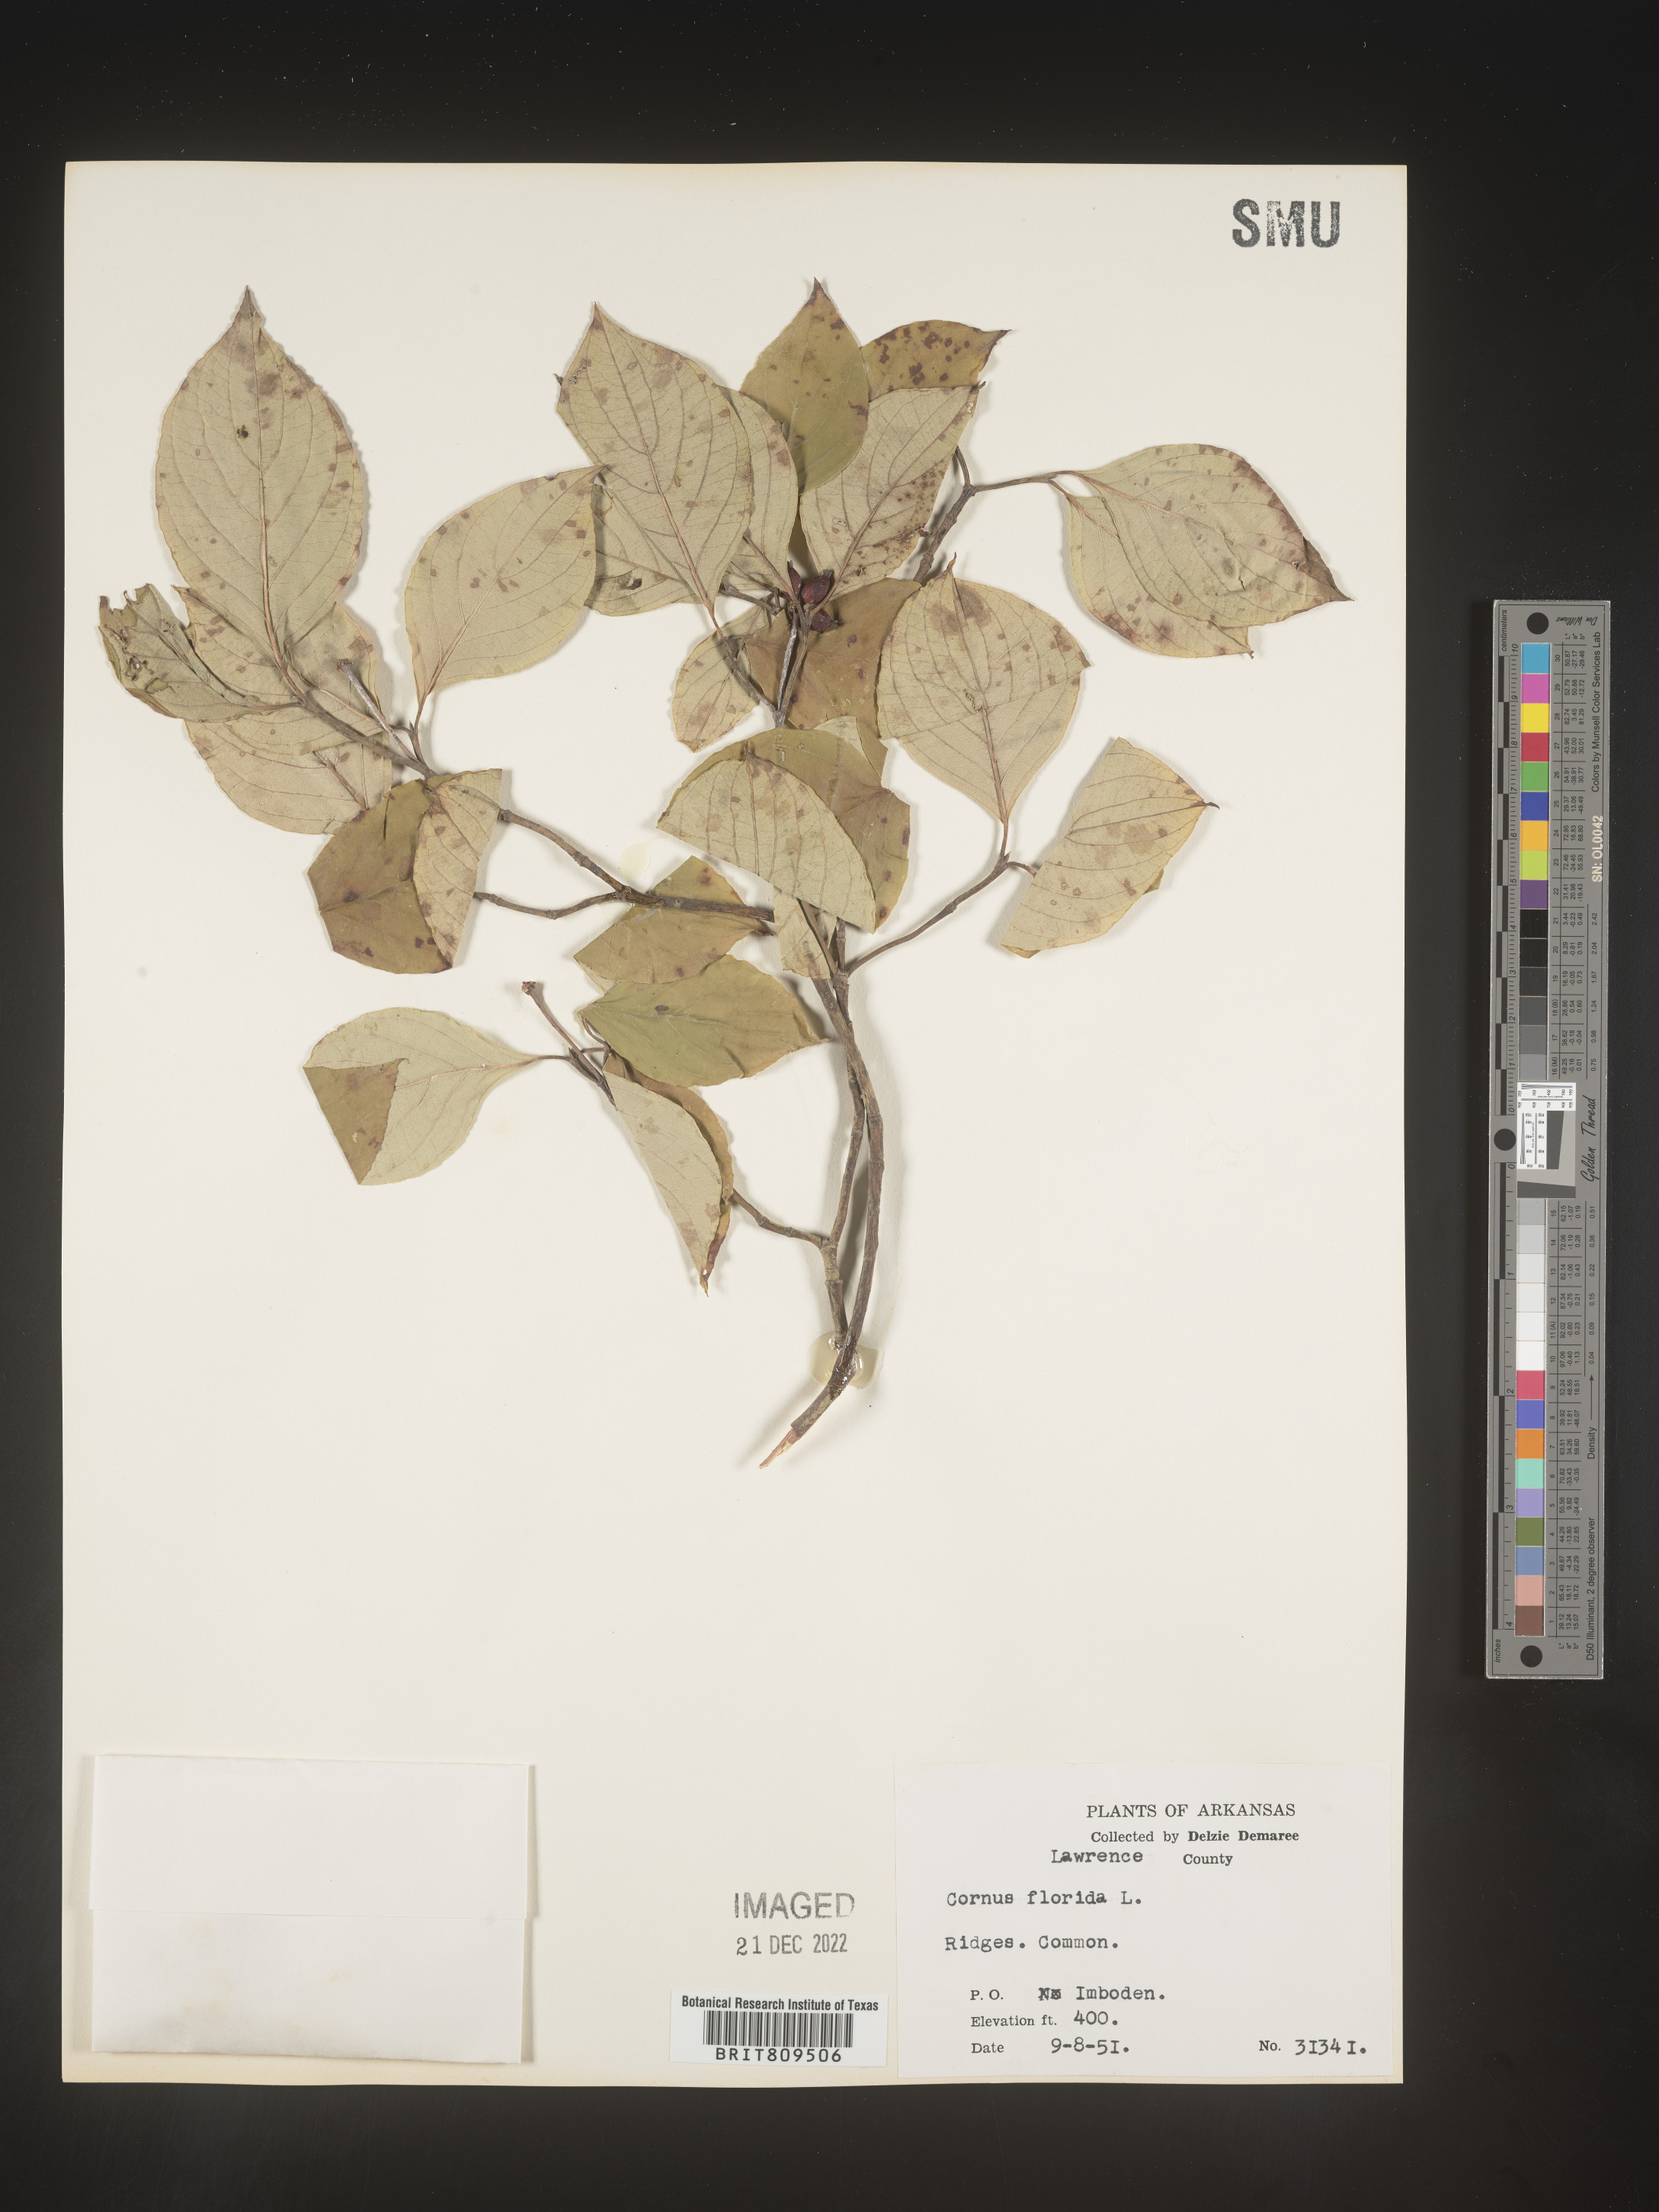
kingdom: Plantae
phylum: Tracheophyta
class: Magnoliopsida
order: Cornales
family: Cornaceae
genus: Cornus
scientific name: Cornus florida
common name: Flowering dogwood
